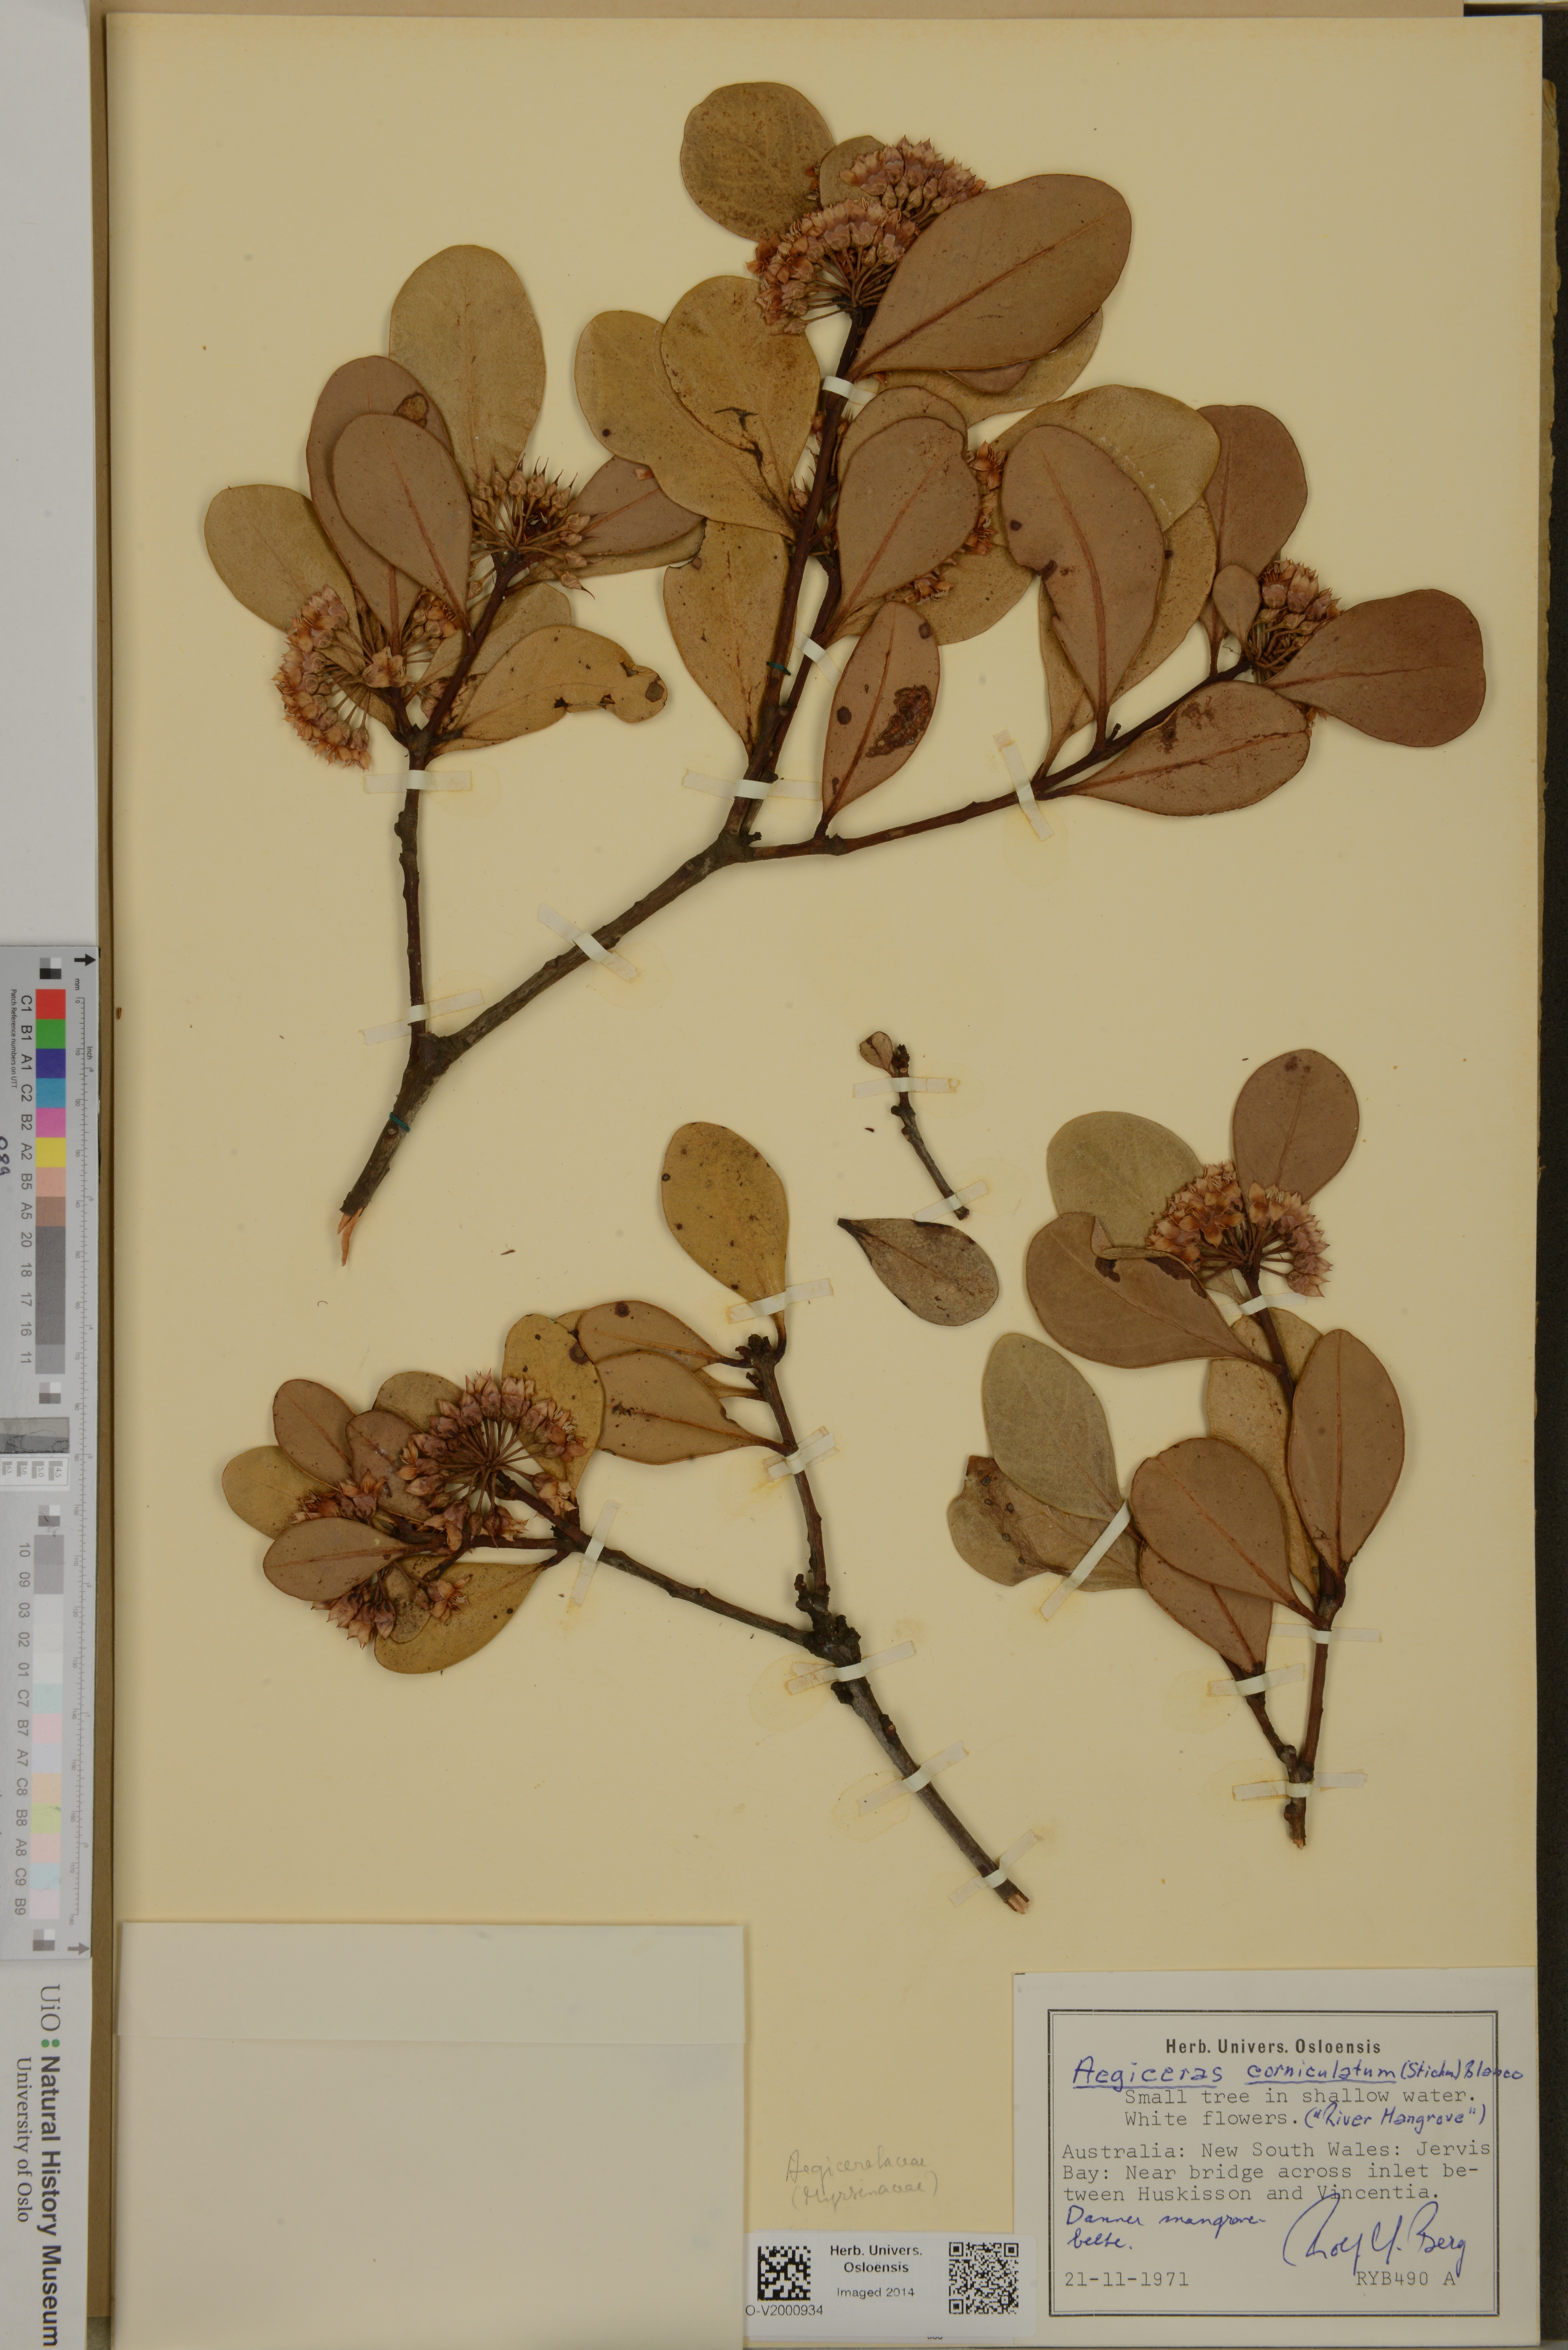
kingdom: Plantae
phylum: Tracheophyta
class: Magnoliopsida
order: Ericales
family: Primulaceae
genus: Aegiceras
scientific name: Aegiceras corniculatum
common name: River mangrove
